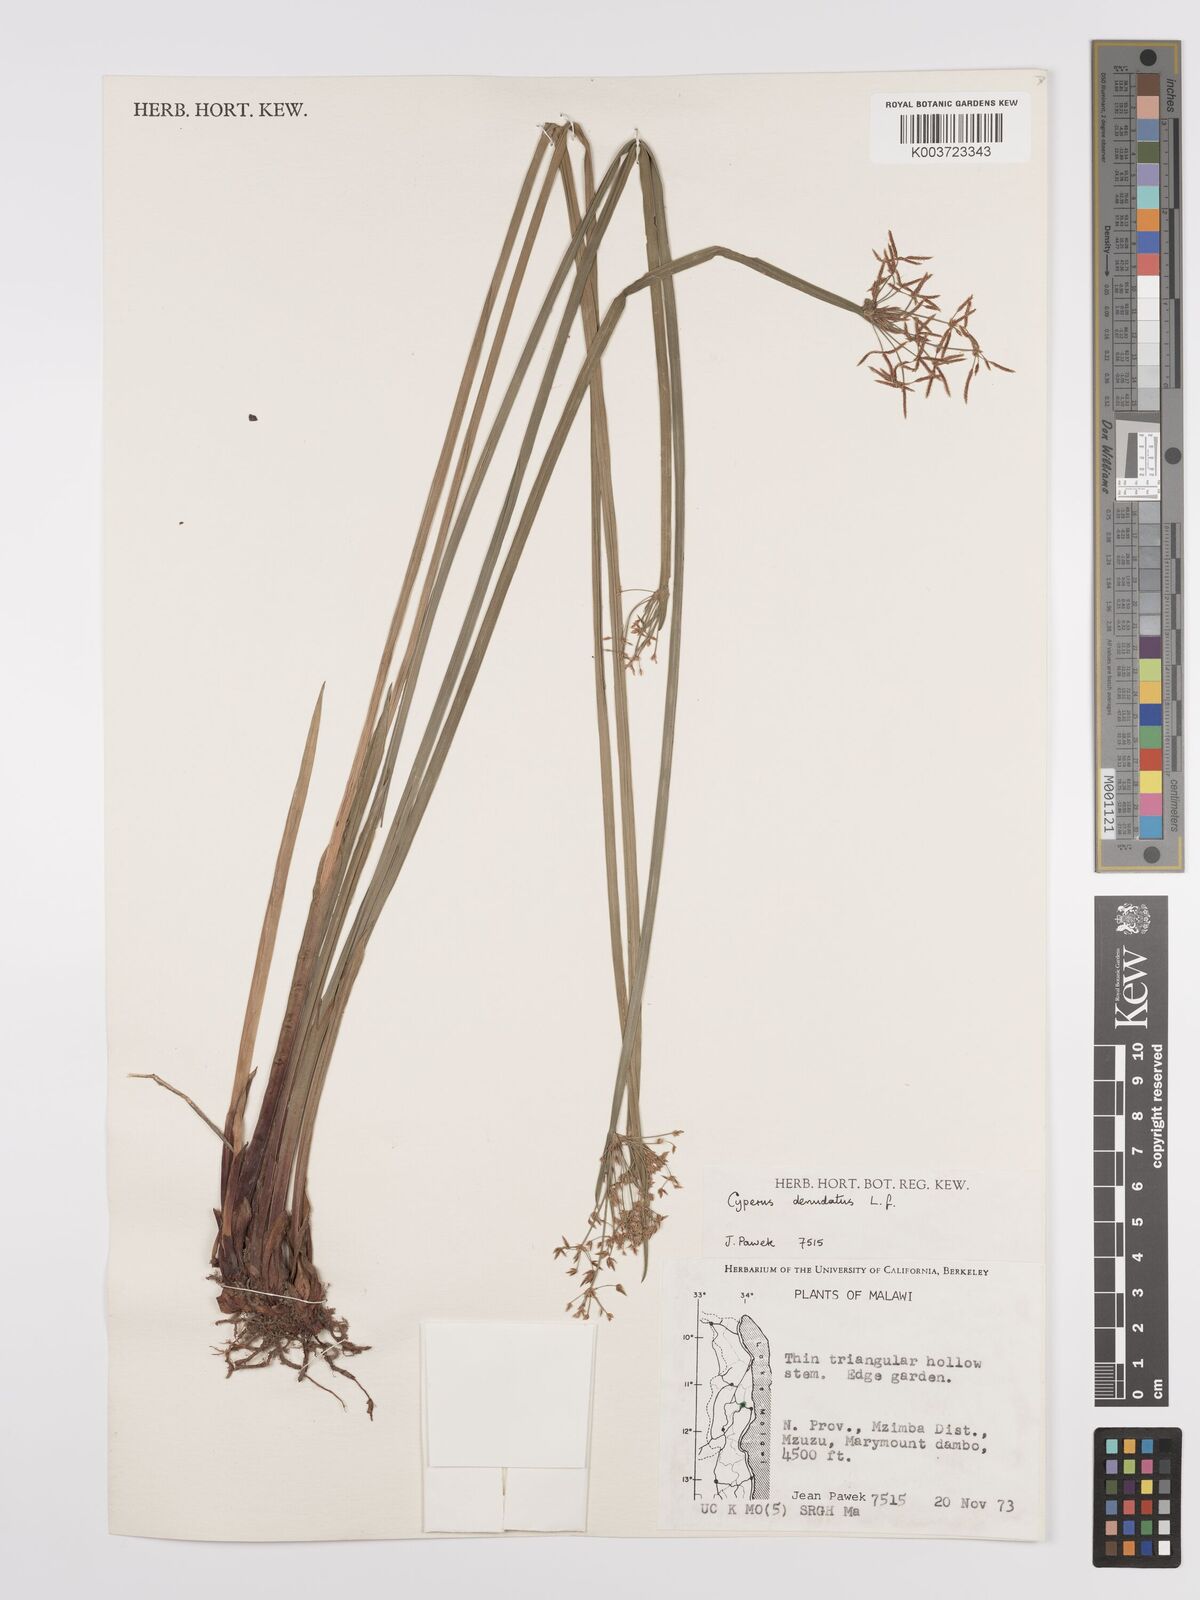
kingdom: Plantae
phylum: Tracheophyta
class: Liliopsida
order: Poales
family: Cyperaceae
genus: Cyperus
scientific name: Cyperus denudatus
